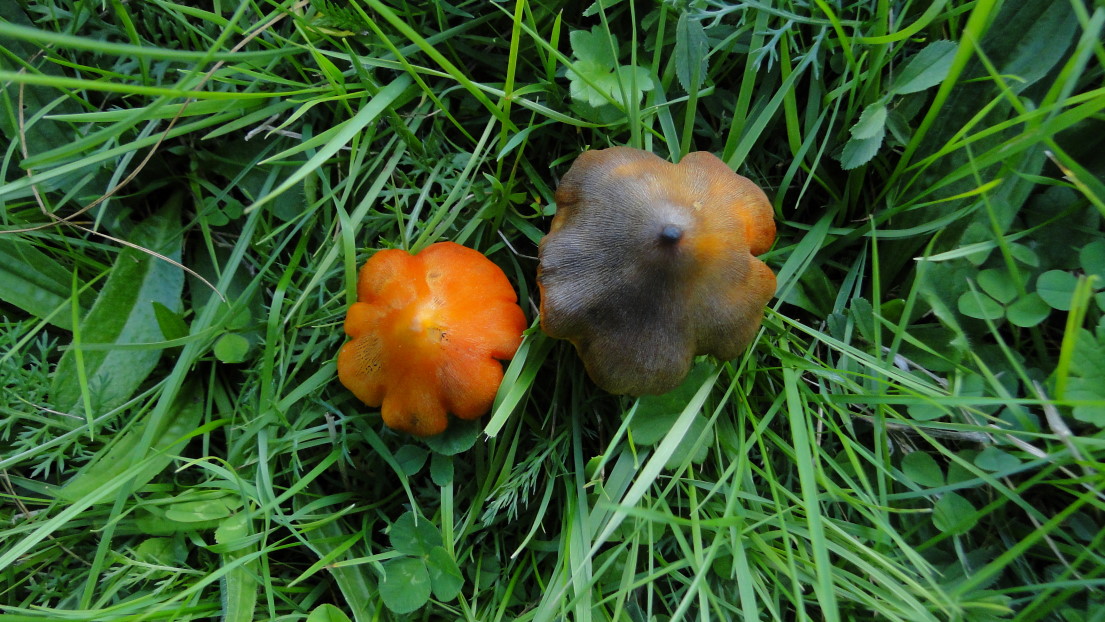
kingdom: Fungi
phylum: Basidiomycota
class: Agaricomycetes
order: Agaricales
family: Hygrophoraceae
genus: Hygrocybe
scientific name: Hygrocybe conica
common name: kegle-vokshat
